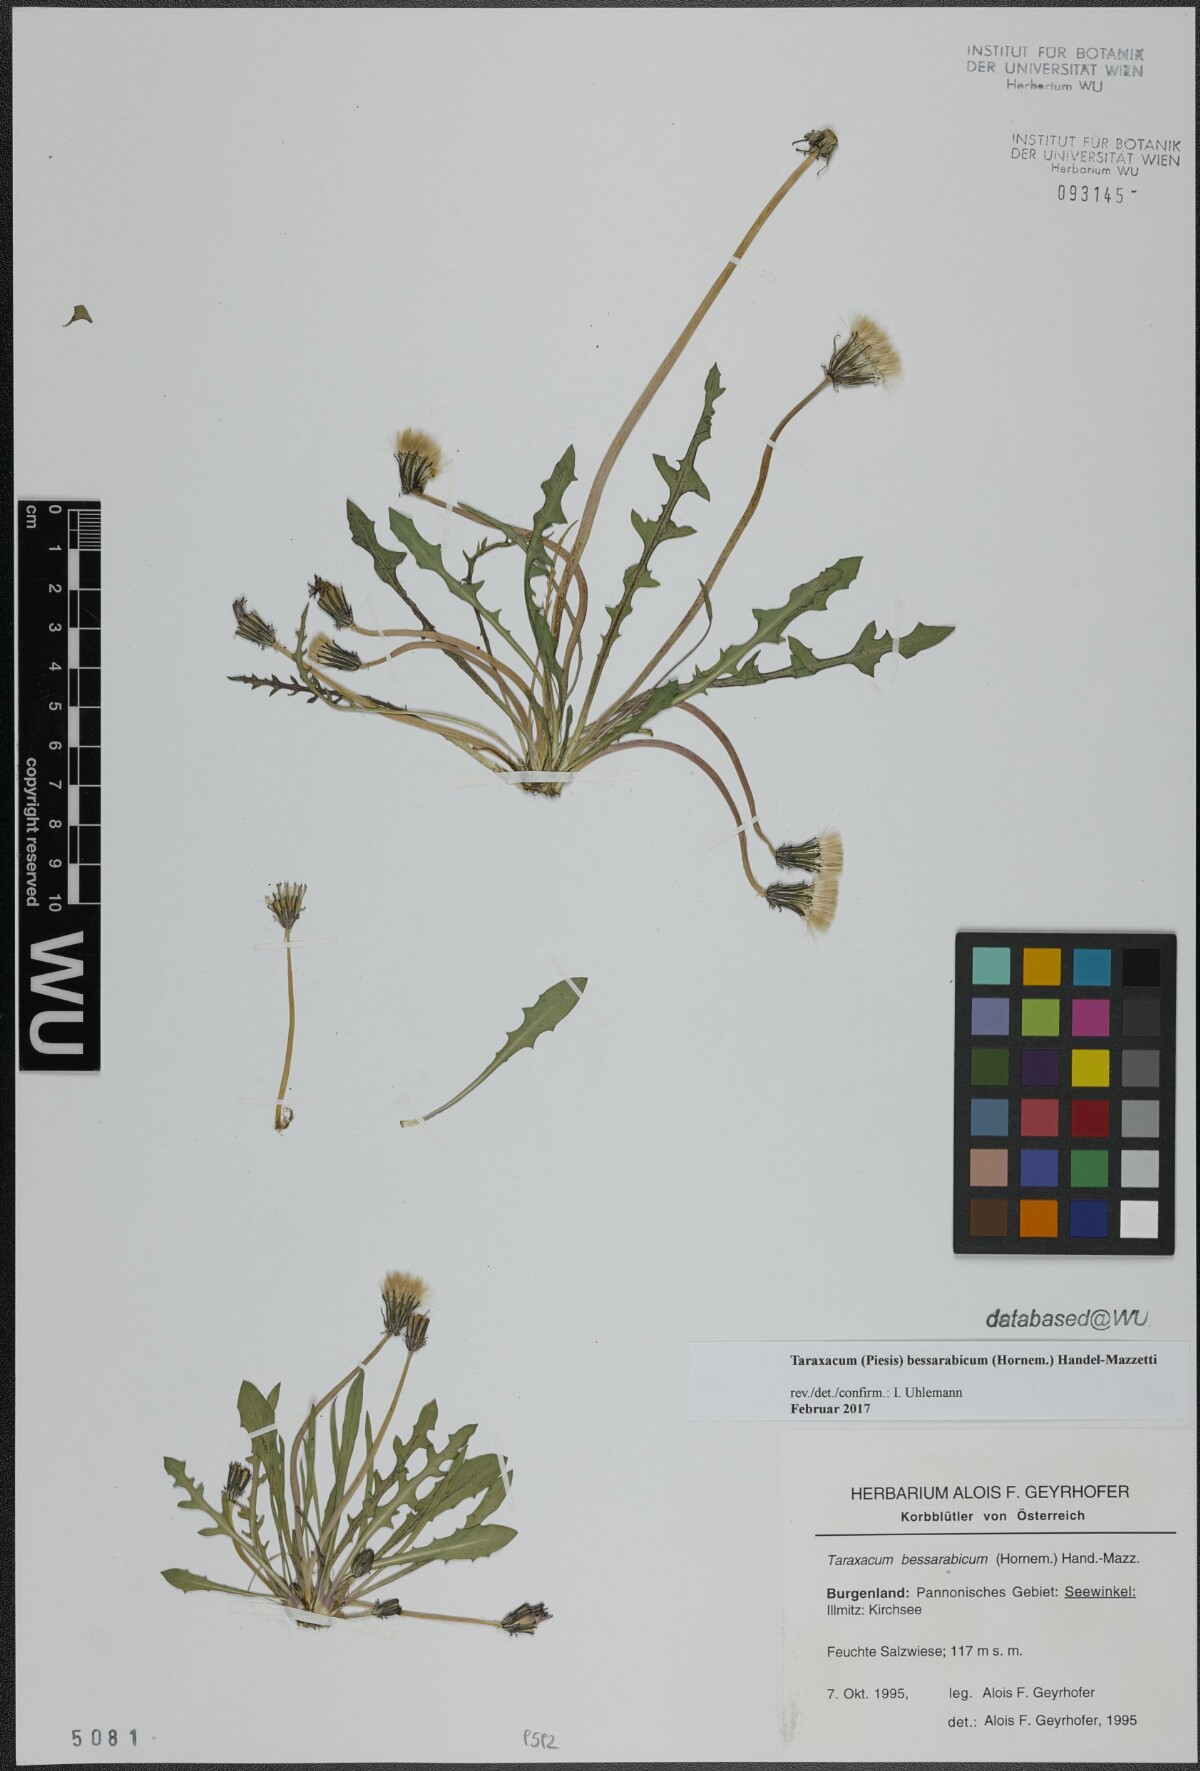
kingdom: Plantae
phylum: Tracheophyta
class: Magnoliopsida
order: Asterales
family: Asteraceae
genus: Taraxacum
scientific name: Taraxacum bessarabicum
